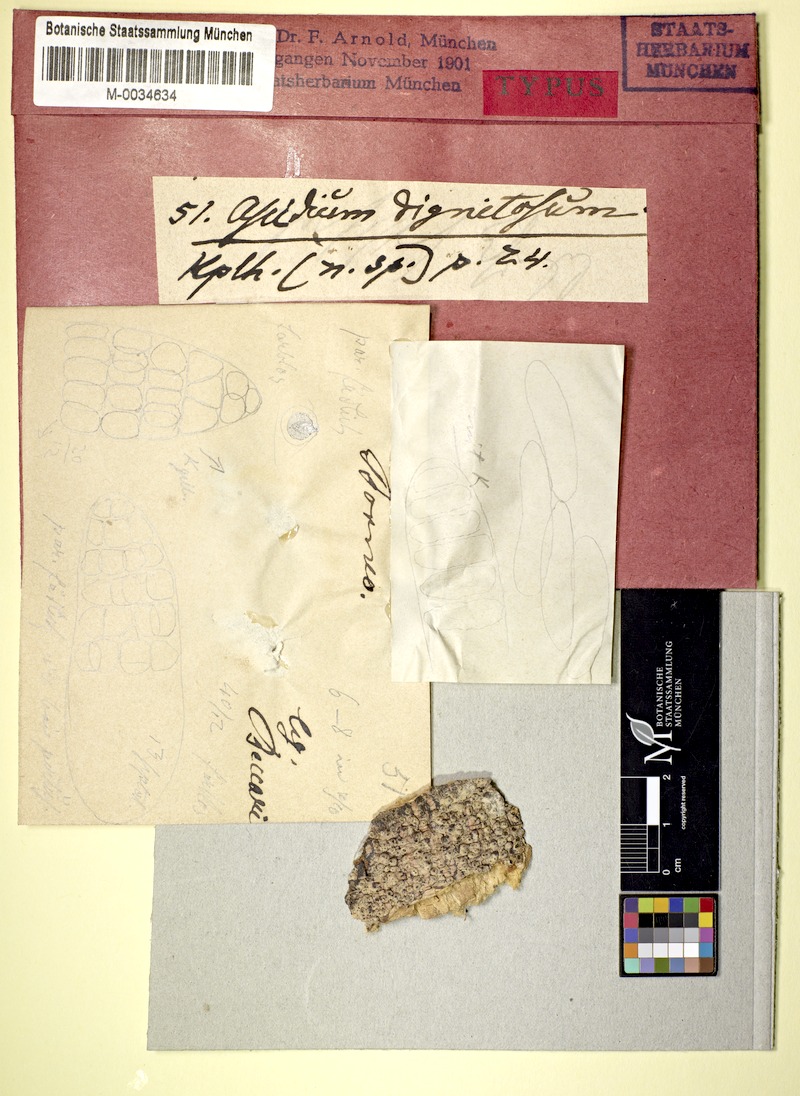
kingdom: Fungi
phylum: Ascomycota
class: Lecanoromycetes
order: Ostropales
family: Graphidaceae
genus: Thelotrema
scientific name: Thelotrema dignitosum
